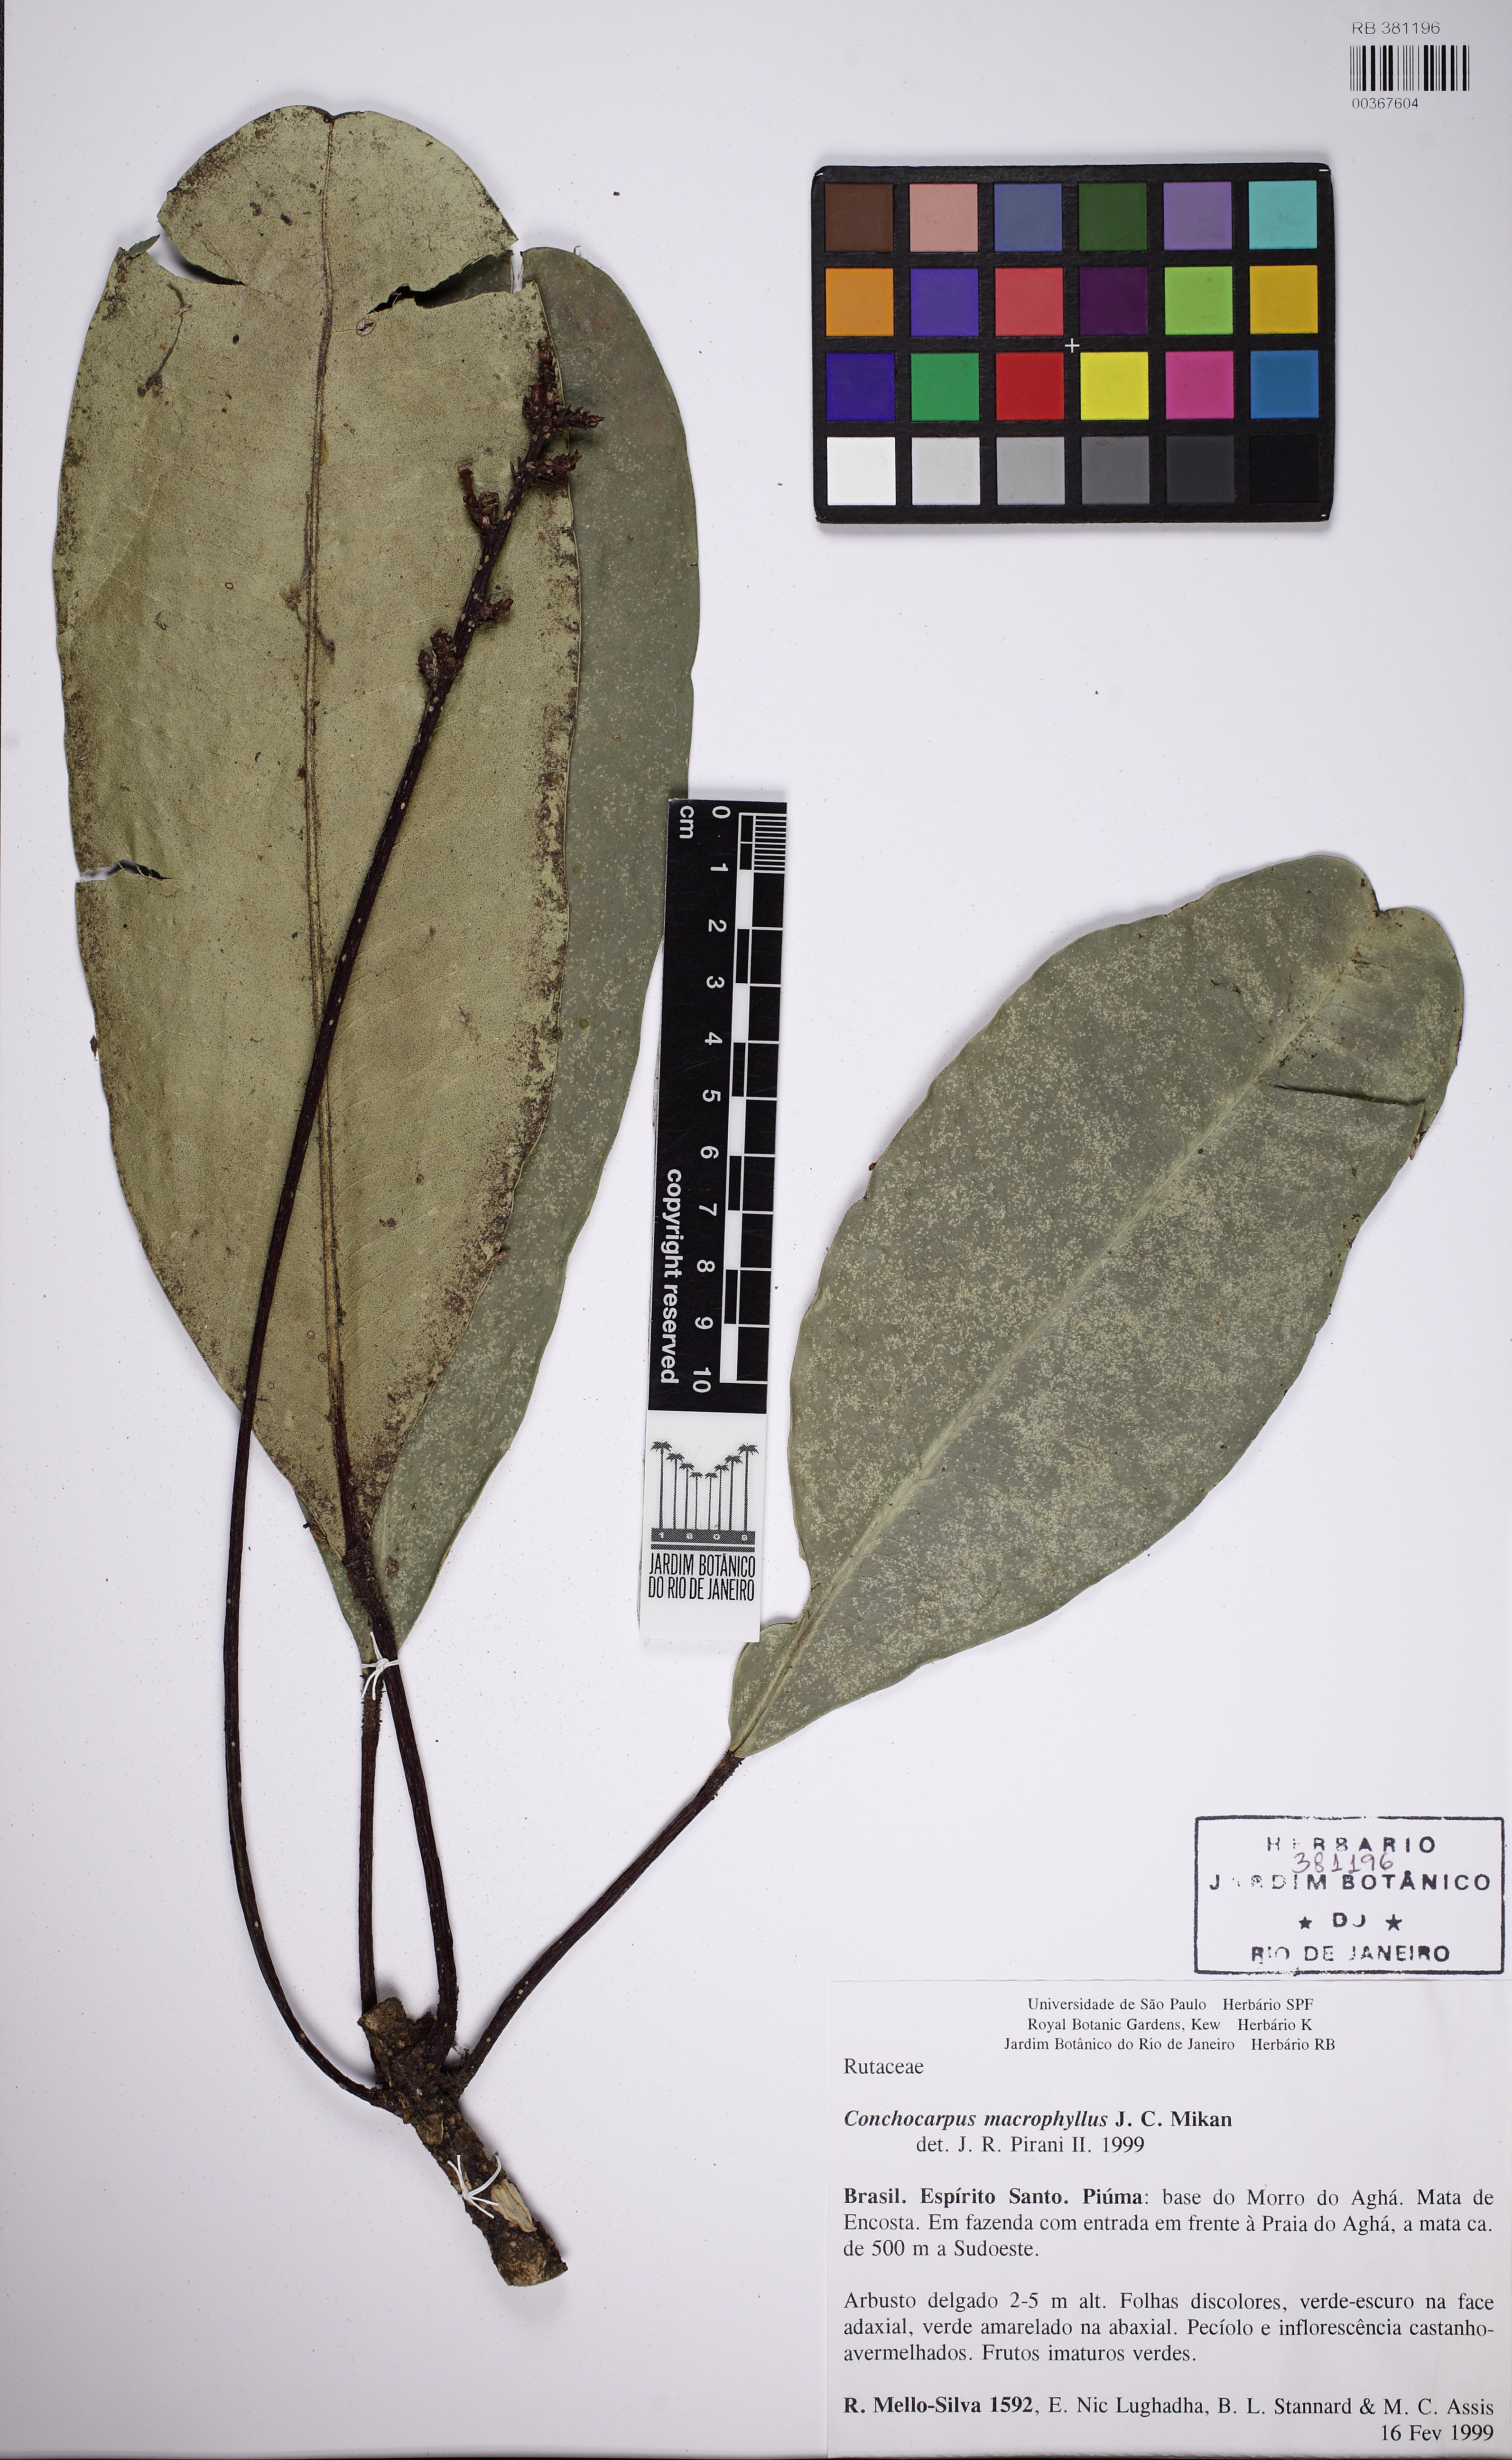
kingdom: Plantae
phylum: Tracheophyta
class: Magnoliopsida
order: Sapindales
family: Rutaceae
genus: Conchocarpus
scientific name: Conchocarpus macrophyllus
